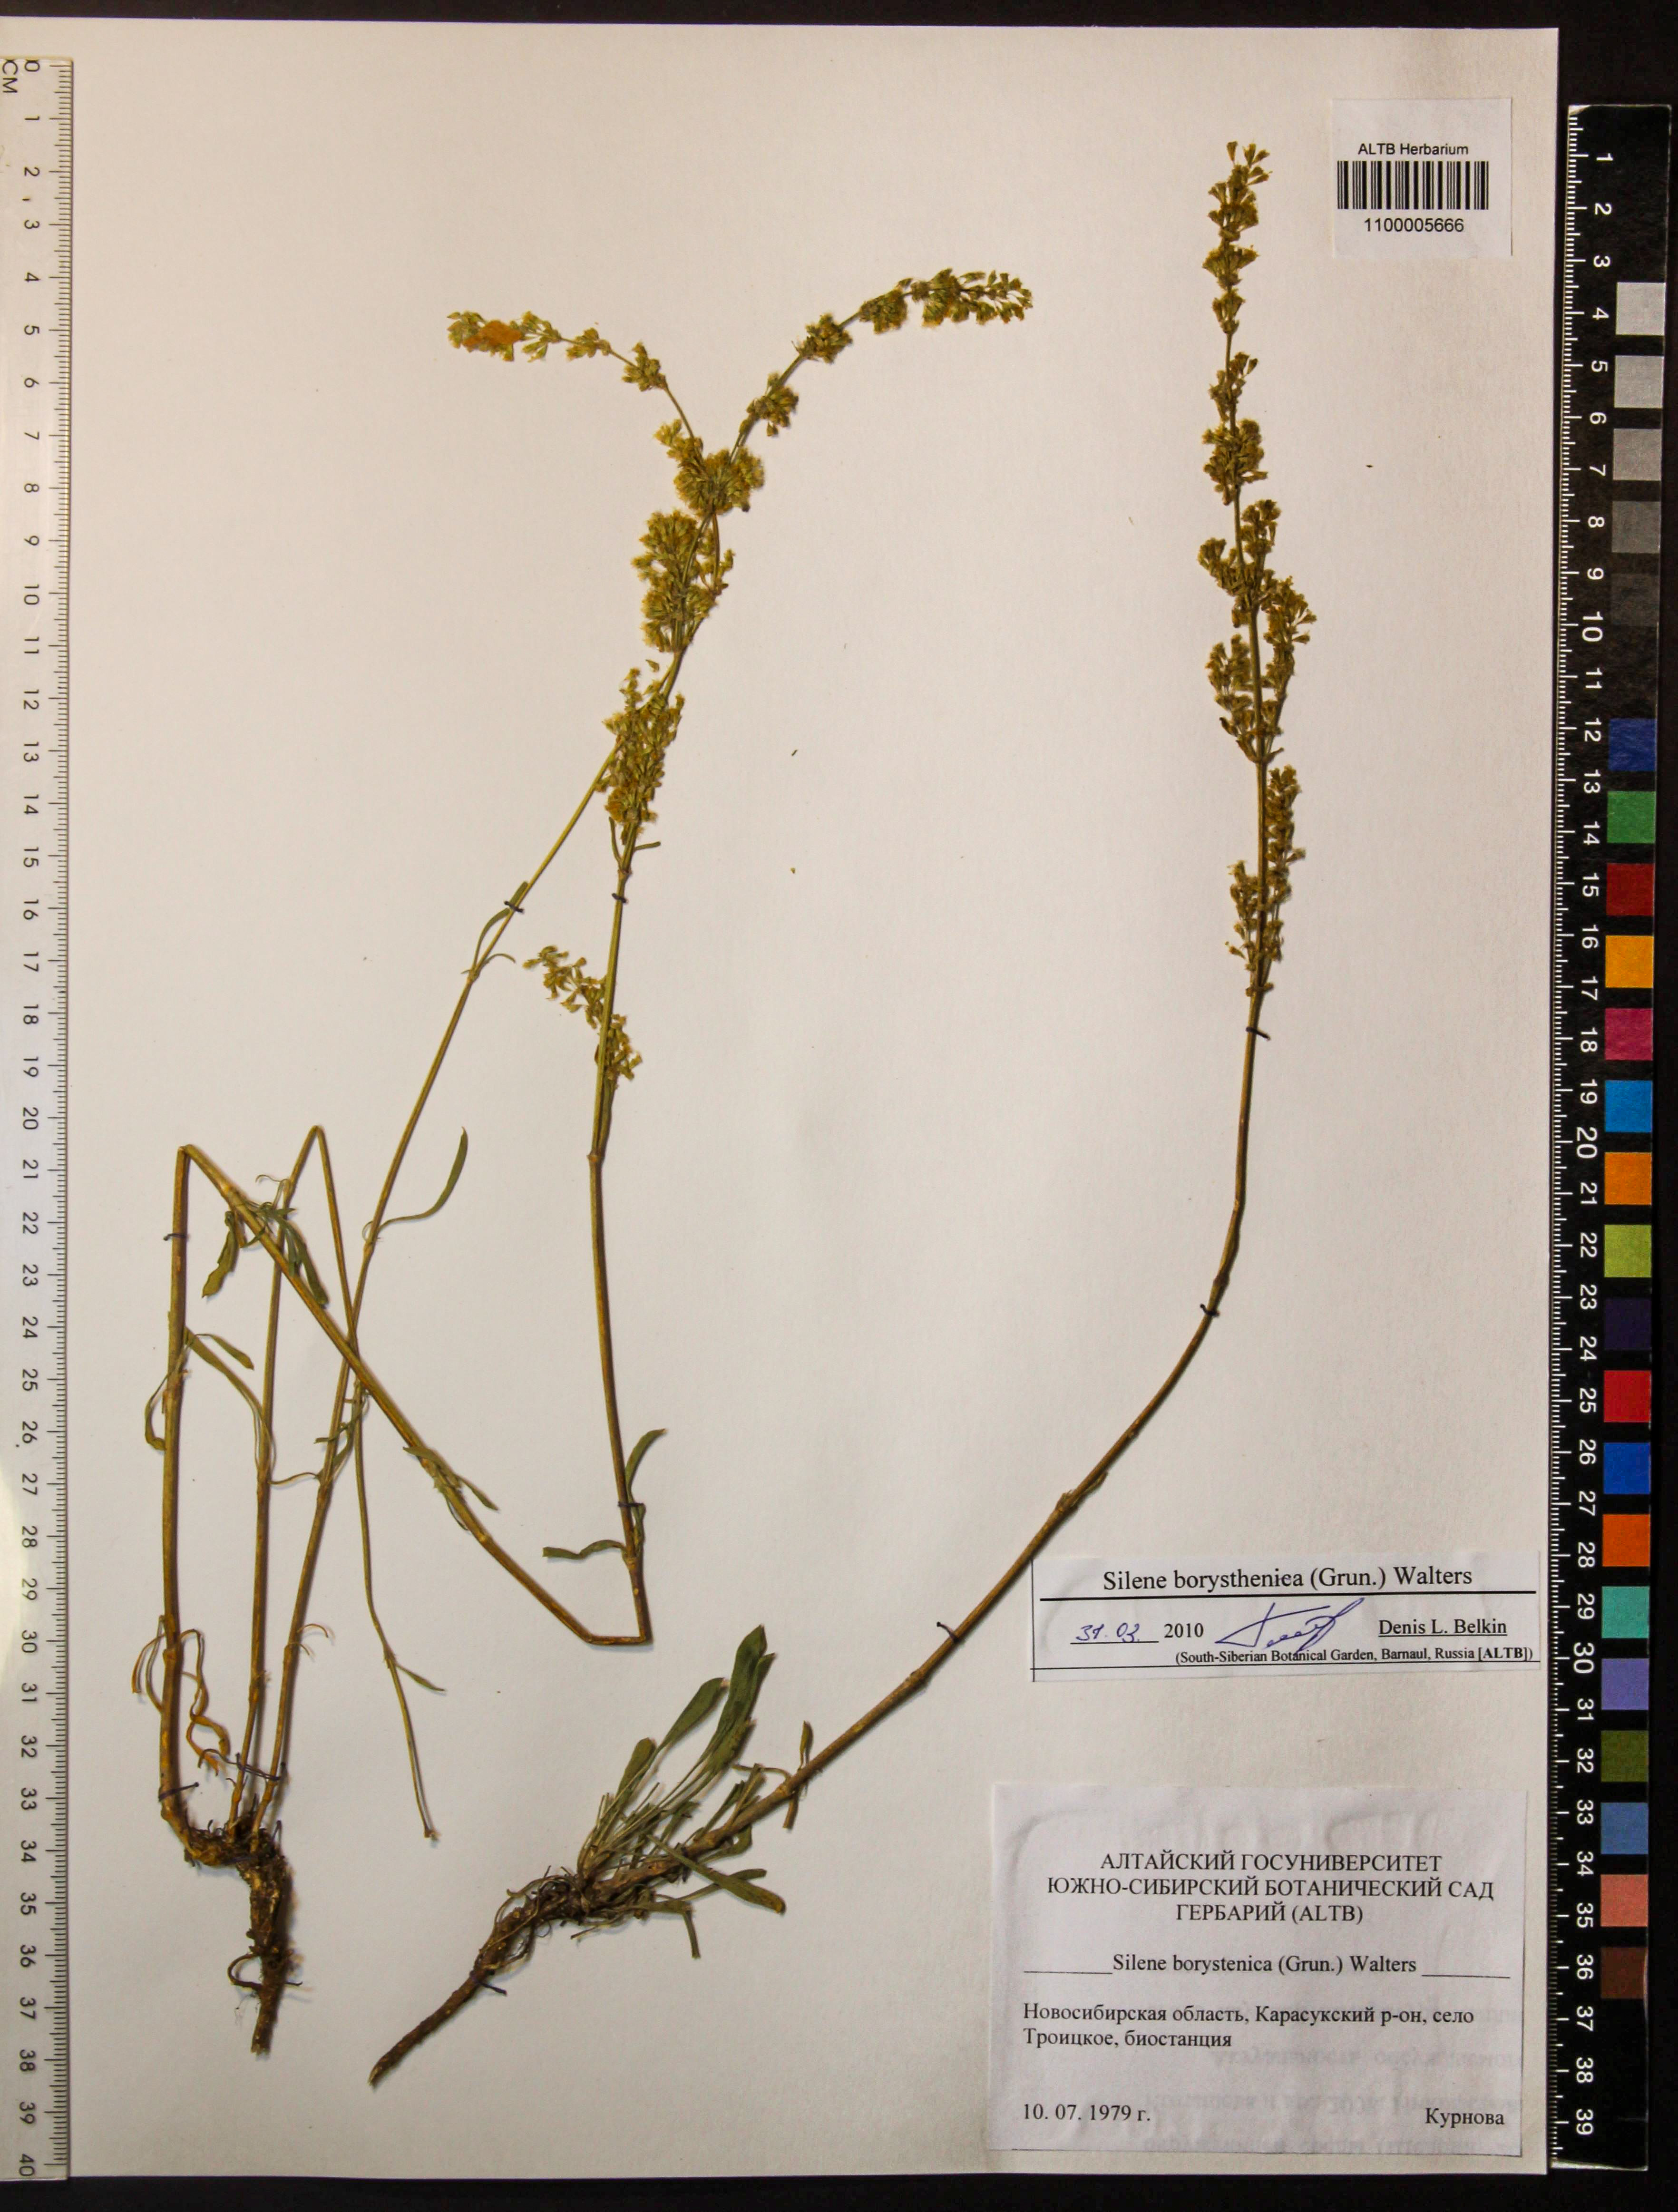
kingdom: Plantae
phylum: Tracheophyta
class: Magnoliopsida
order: Caryophyllales
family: Caryophyllaceae
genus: Silene
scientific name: Silene borysthenica
